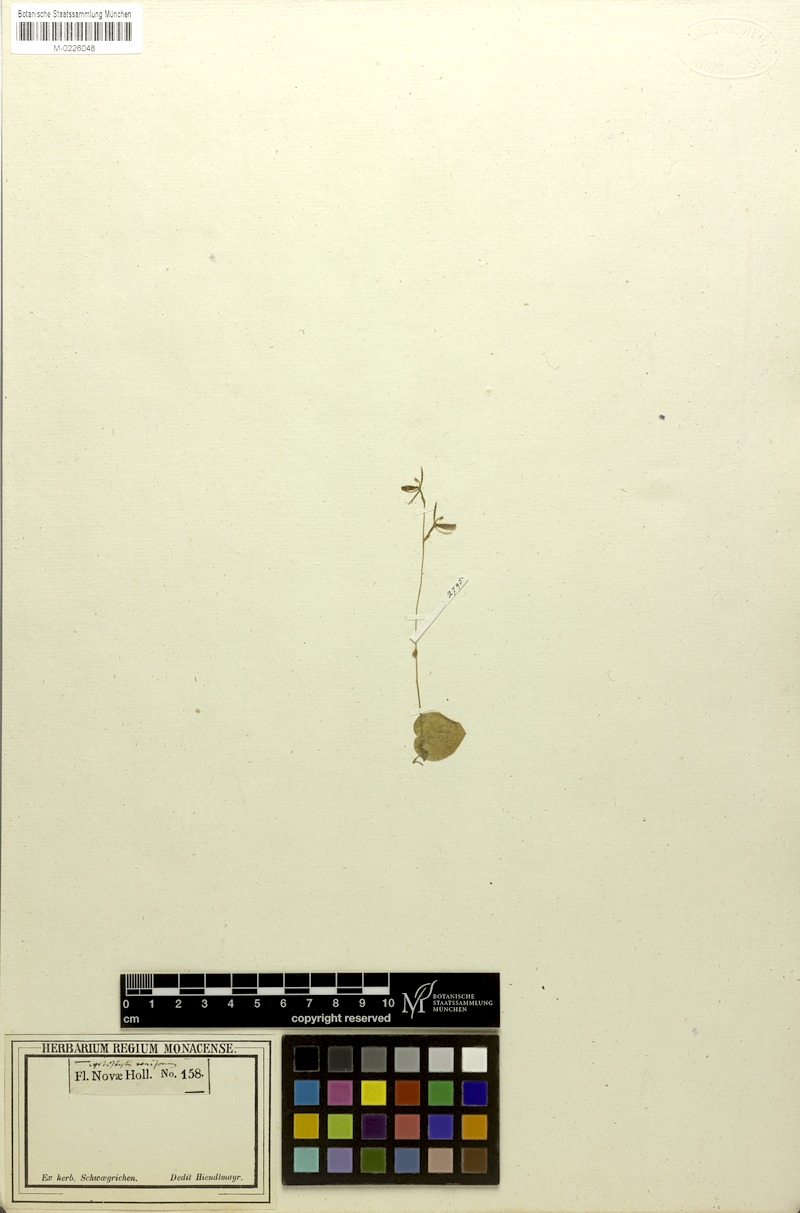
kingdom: Plantae
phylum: Tracheophyta
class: Liliopsida
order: Asparagales
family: Orchidaceae
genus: Cyrtostylis
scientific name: Cyrtostylis reniformis
